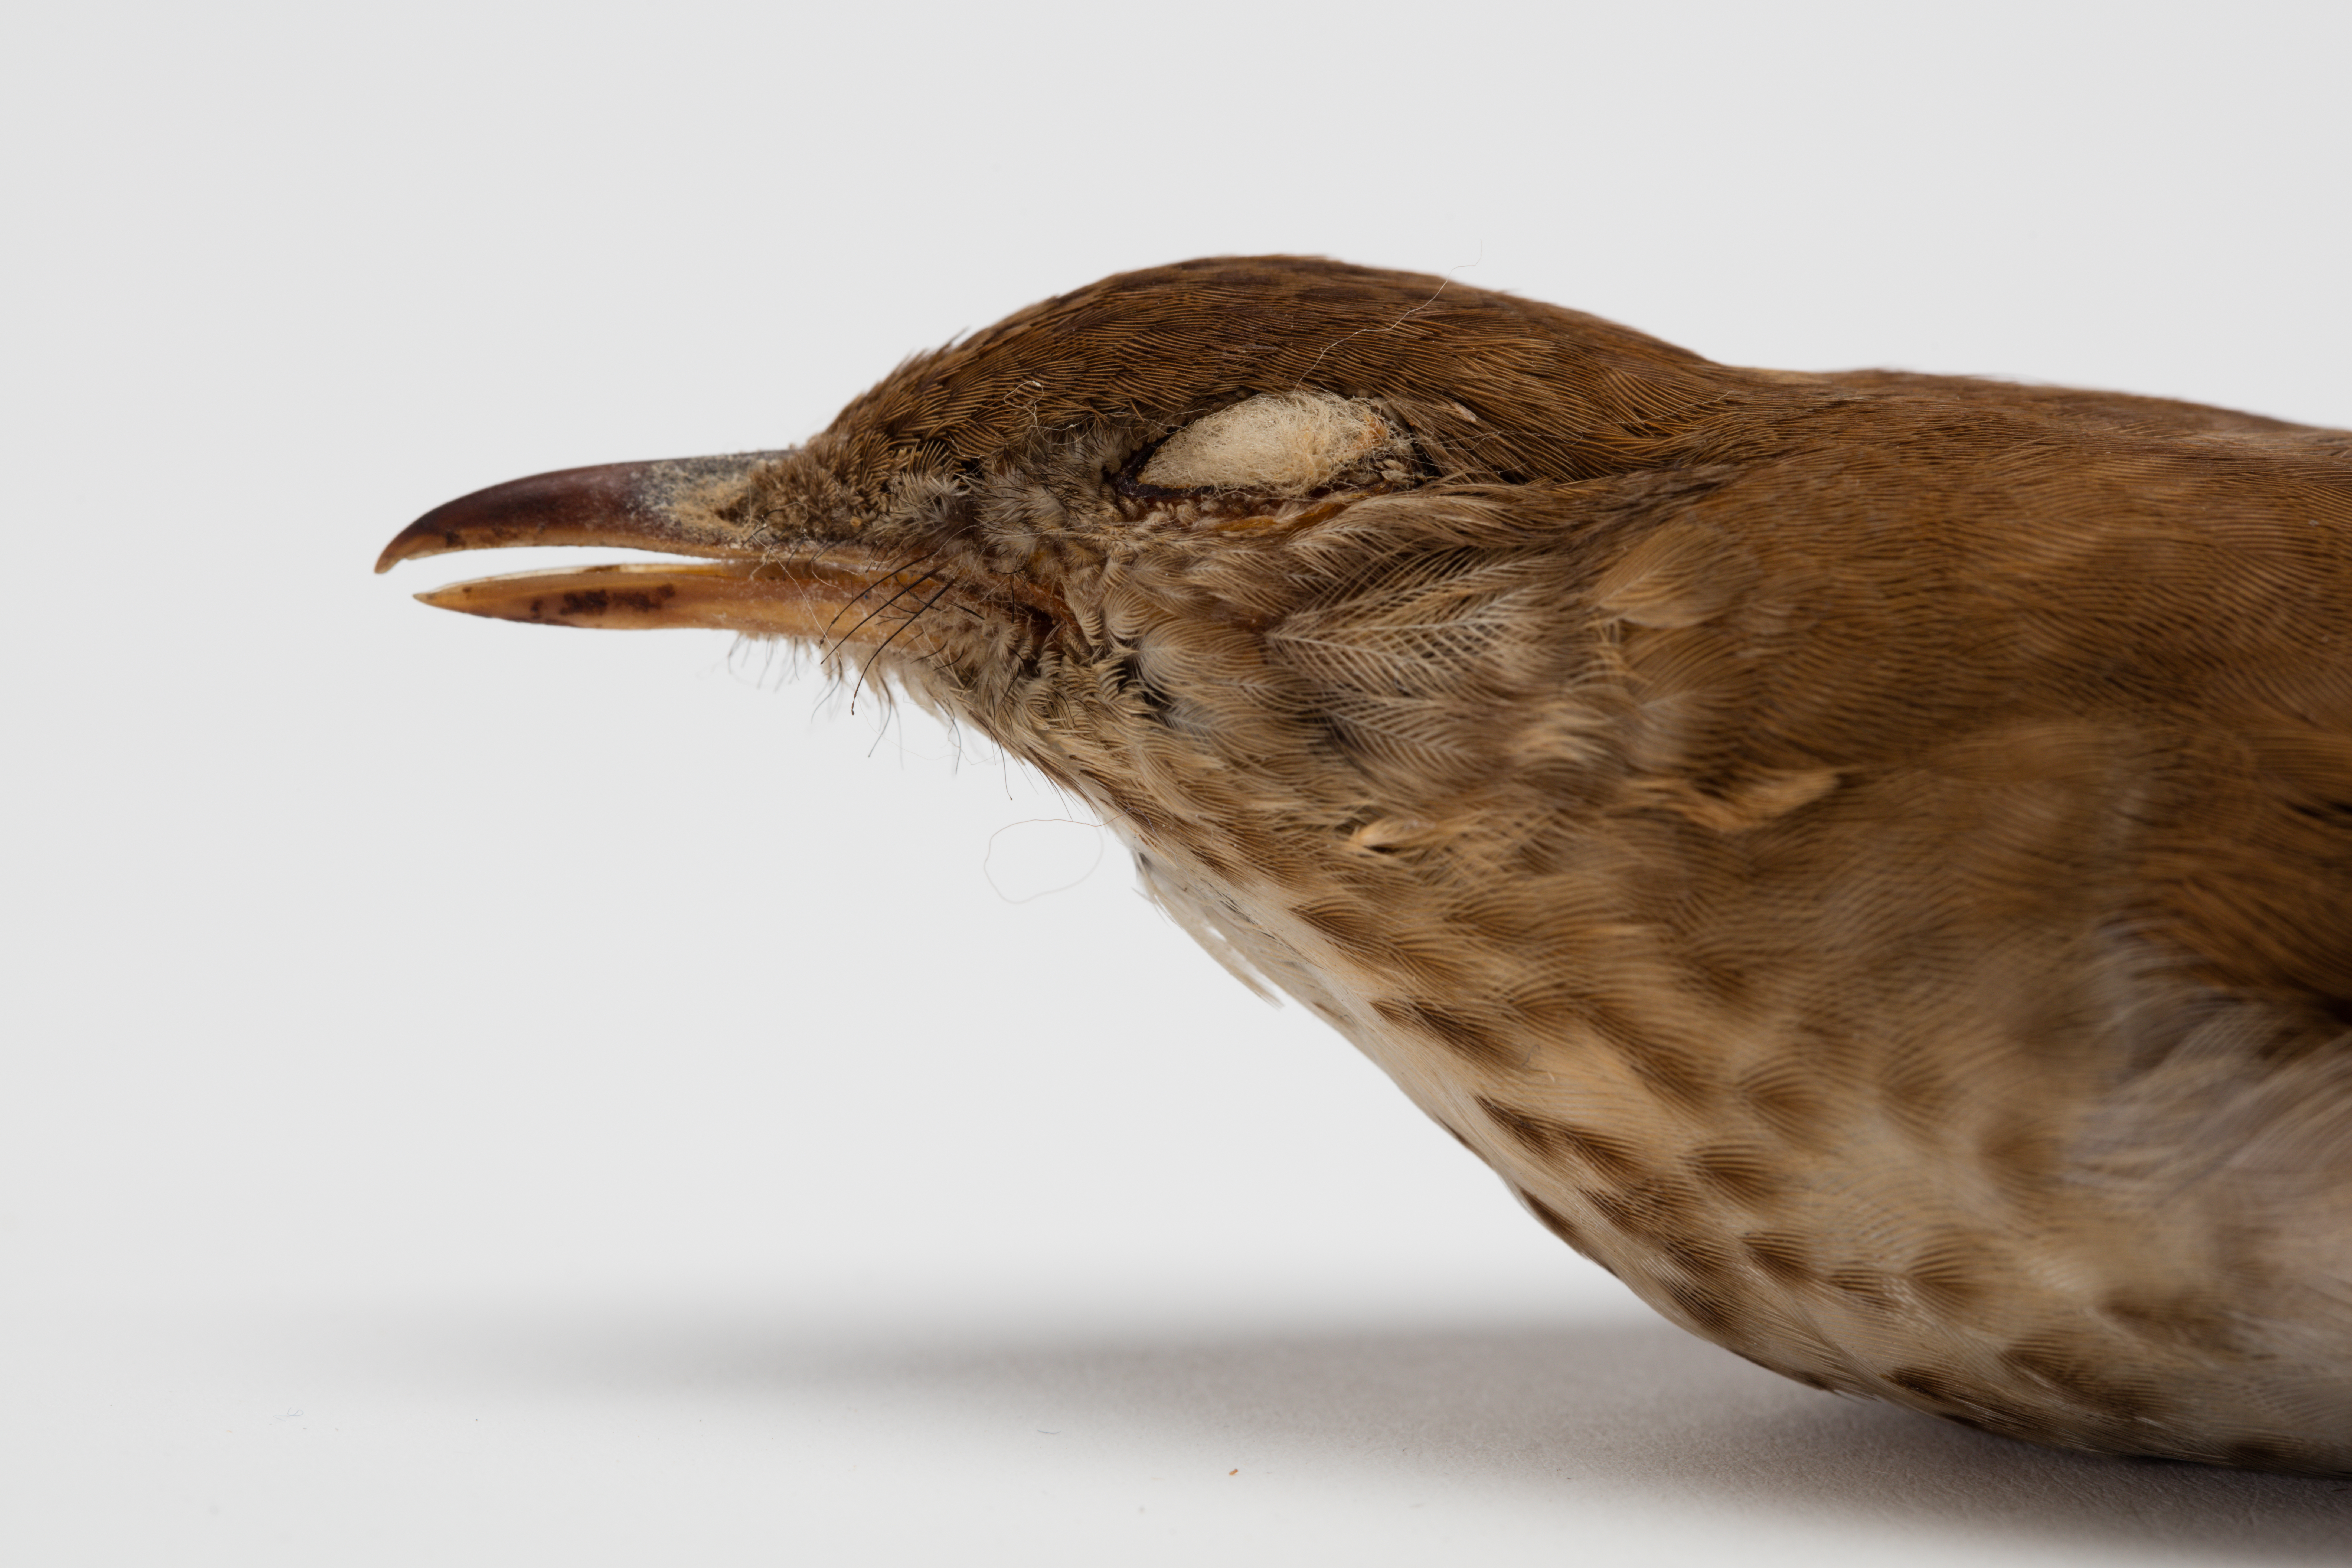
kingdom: Animalia
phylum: Chordata
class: Aves
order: Passeriformes
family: Turdidae
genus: Catharus
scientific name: Catharus fuscescens
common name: Veery
